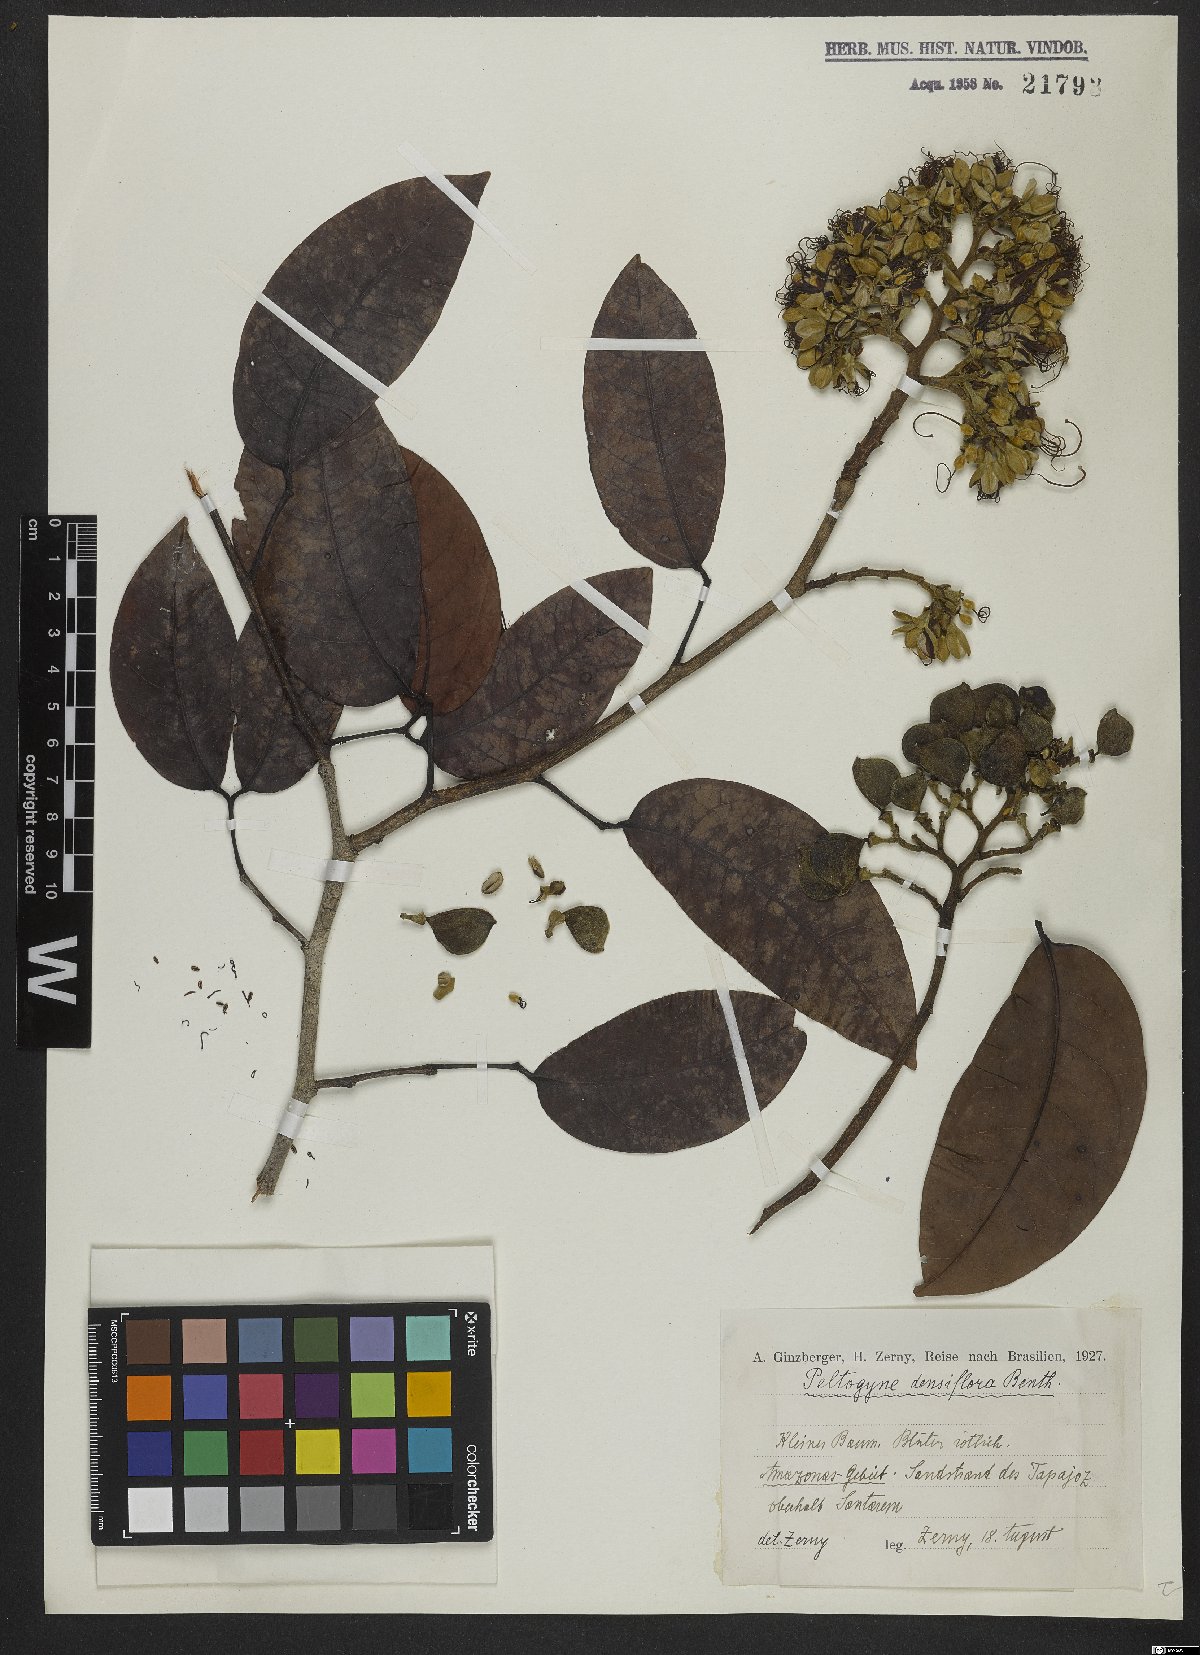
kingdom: Plantae
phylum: Tracheophyta
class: Magnoliopsida
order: Fabales
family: Fabaceae
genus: Peltogyne
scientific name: Peltogyne venosa
